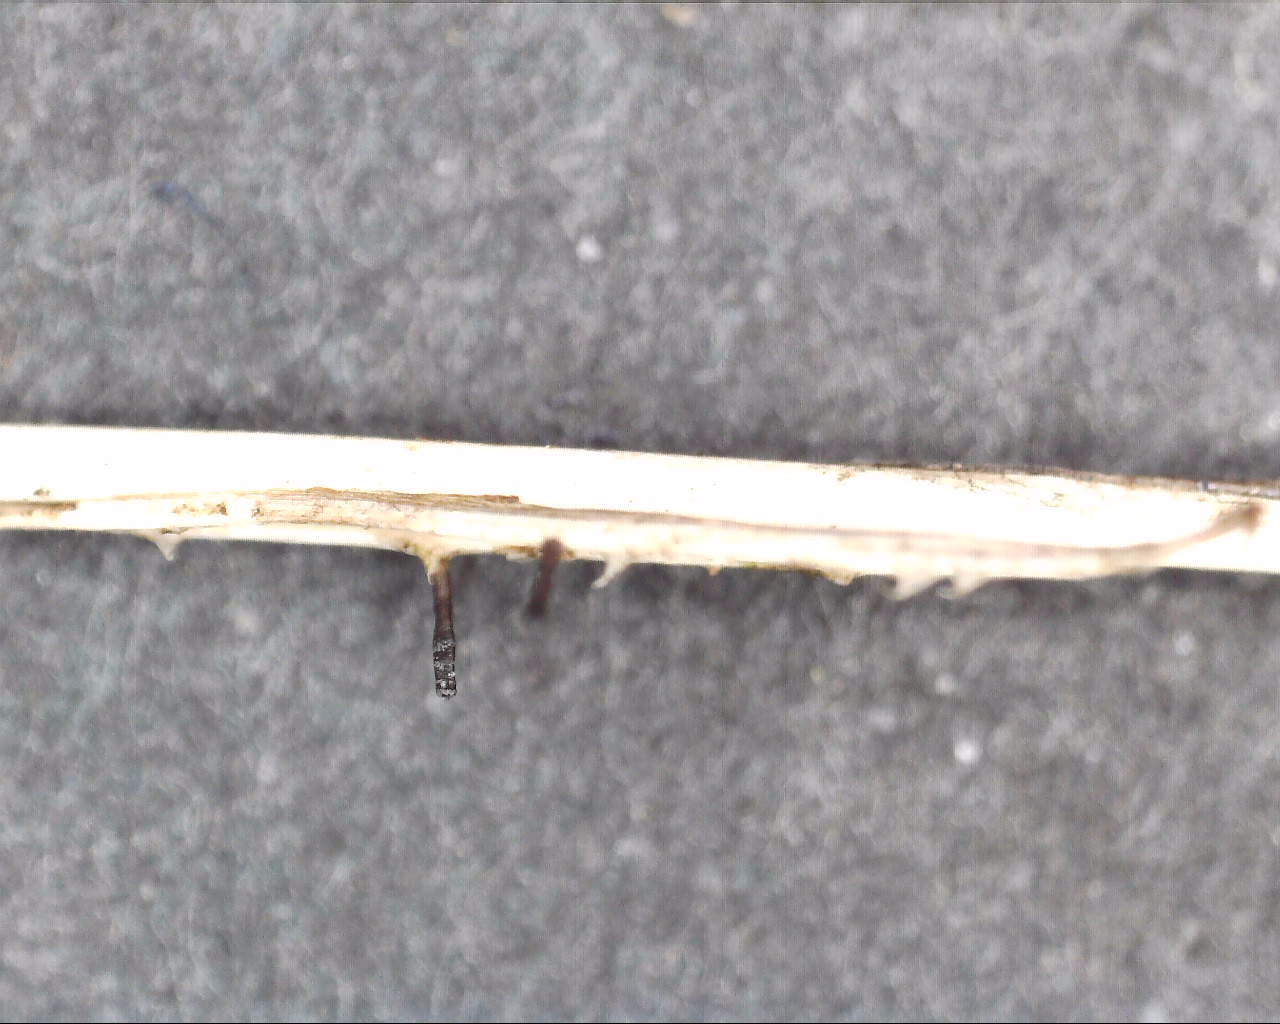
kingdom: Fungi
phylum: Ascomycota
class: Dothideomycetes
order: Acrospermales
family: Acrospermaceae
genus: Acrospermum
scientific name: Acrospermum pallidulum
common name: snerre-stængeltunge
